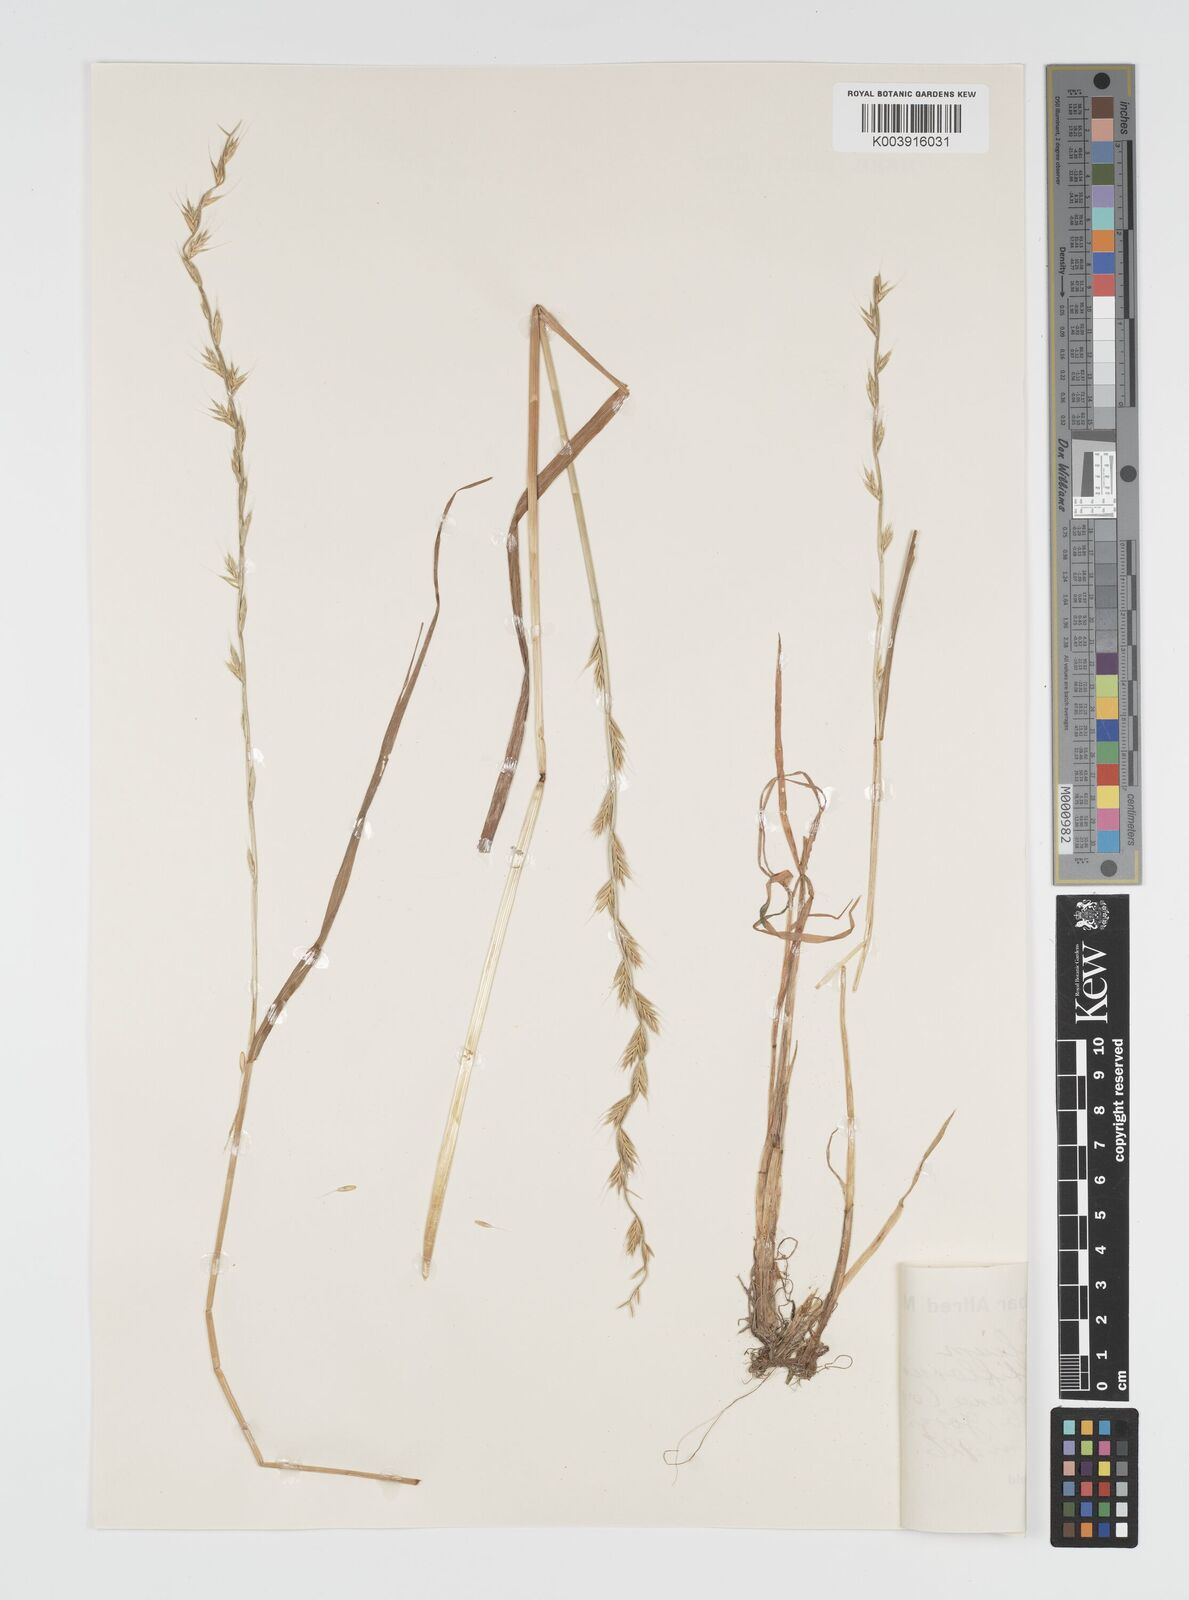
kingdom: Plantae
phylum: Tracheophyta
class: Liliopsida
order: Poales
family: Poaceae
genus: Lolium
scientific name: Lolium multiflorum
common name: Annual ryegrass
